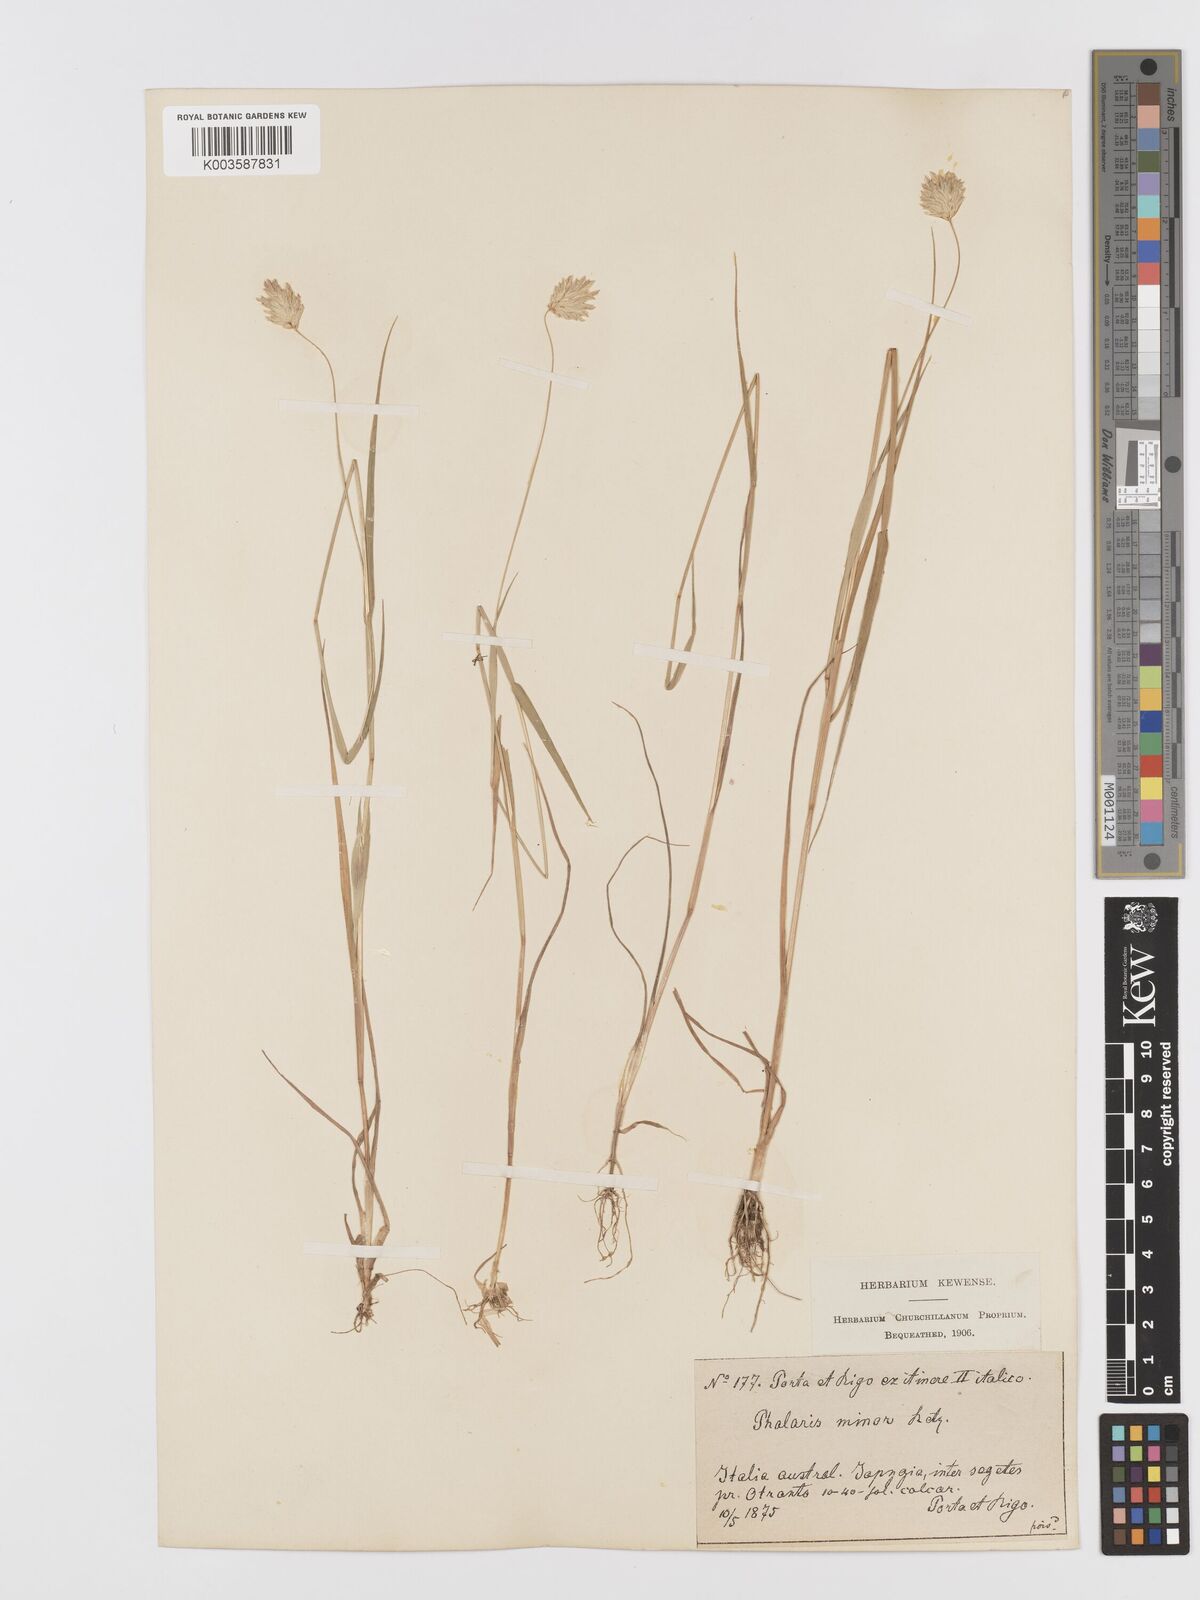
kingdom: Plantae
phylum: Tracheophyta
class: Liliopsida
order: Poales
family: Poaceae
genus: Phalaris
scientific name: Phalaris minor
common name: Littleseed canarygrass
